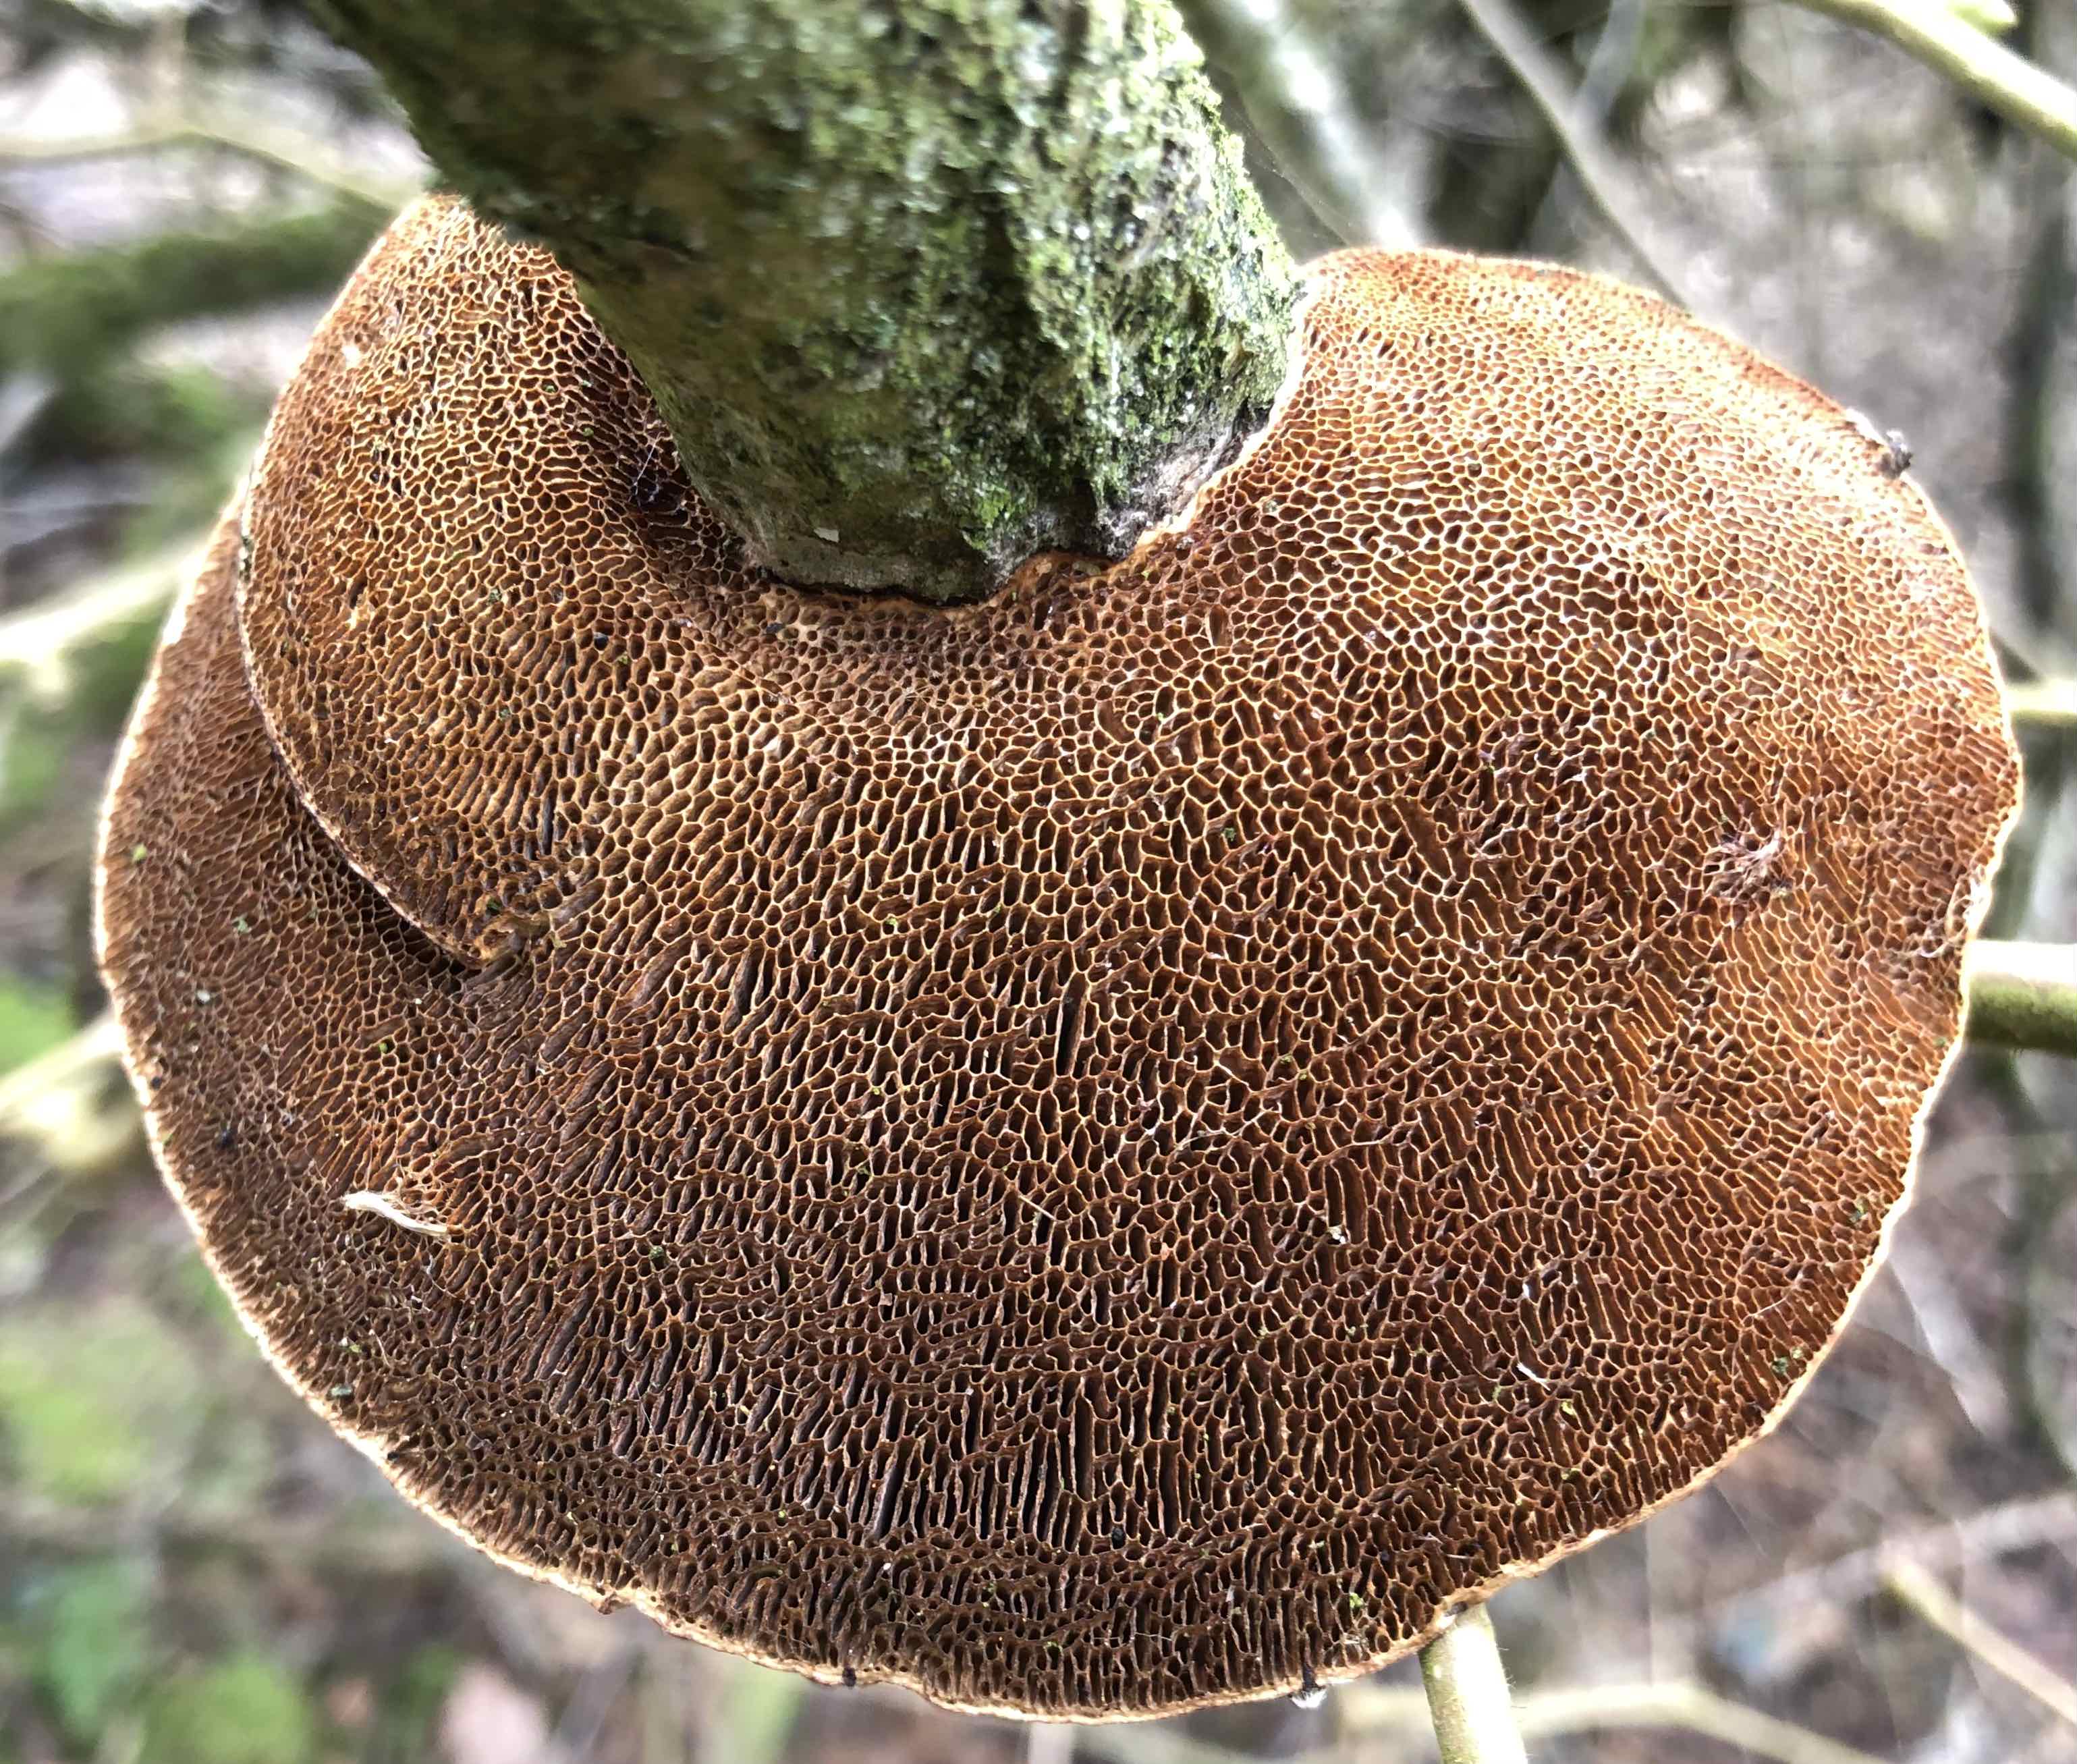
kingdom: Fungi
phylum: Basidiomycota
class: Agaricomycetes
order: Polyporales
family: Polyporaceae
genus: Daedaleopsis
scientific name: Daedaleopsis confragosa
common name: rødmende læderporesvamp
